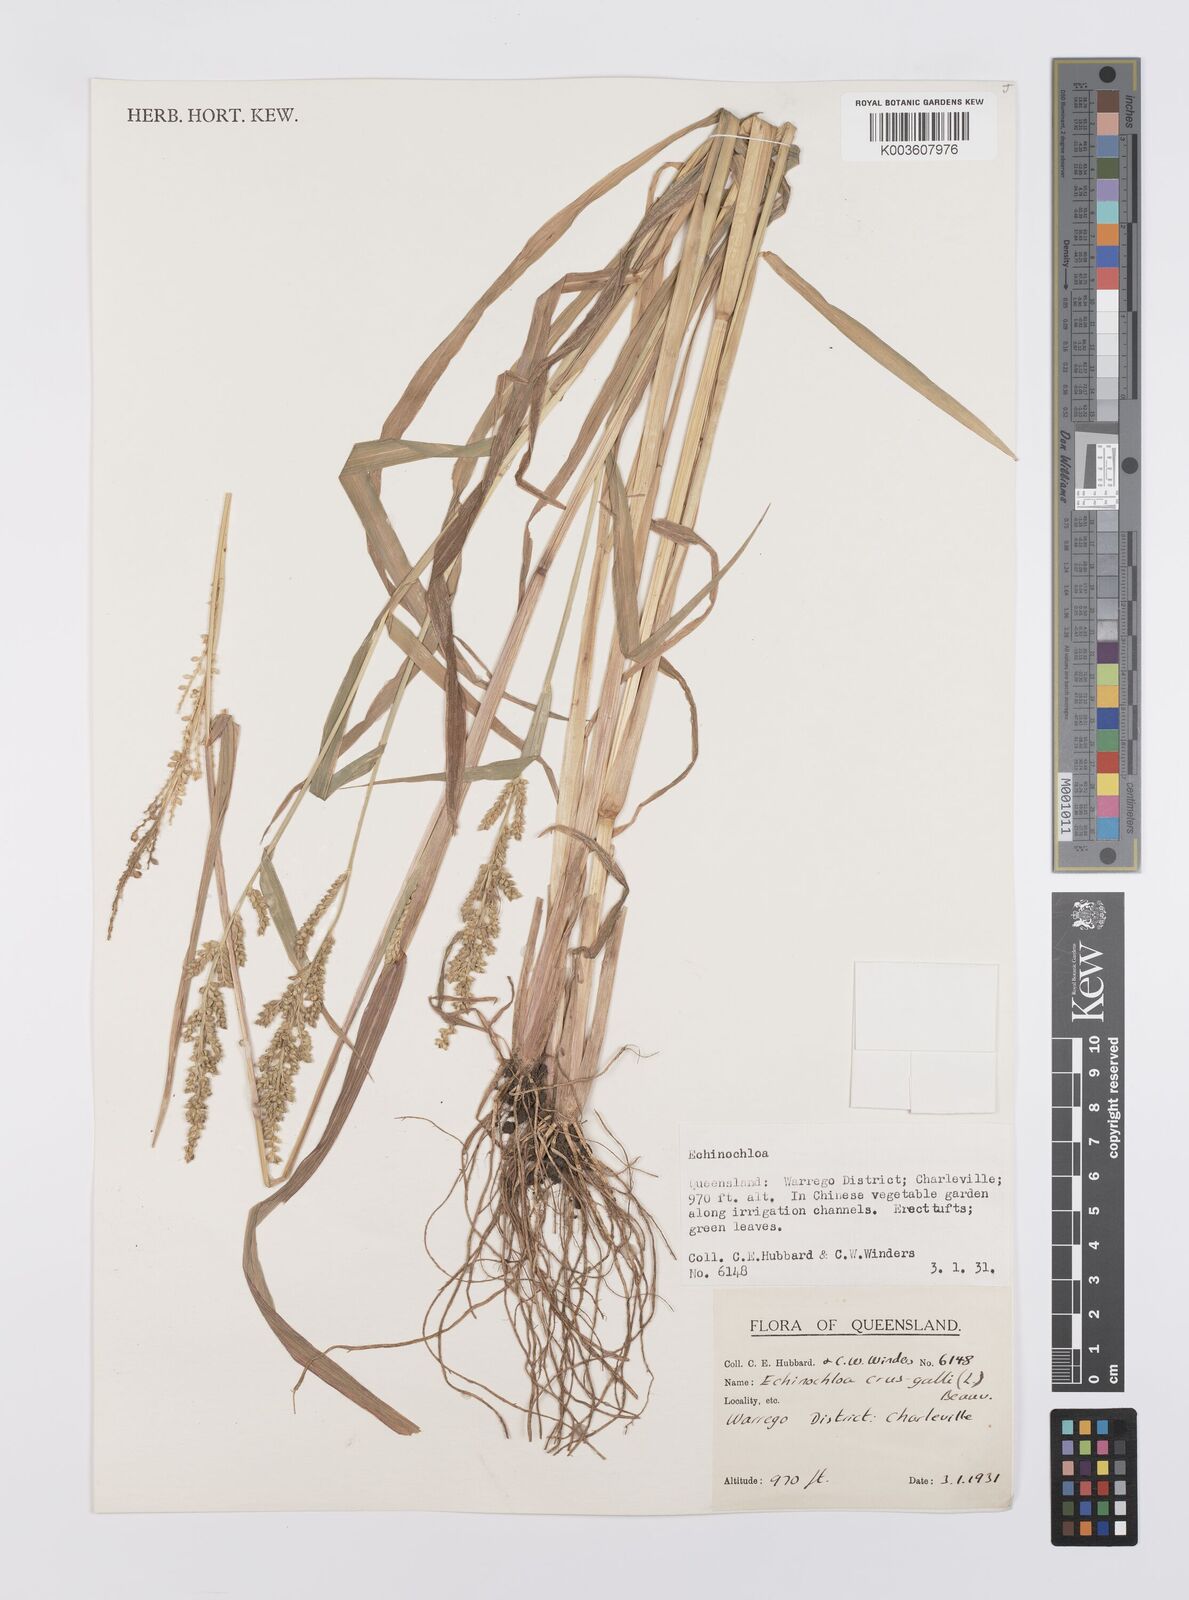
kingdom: Plantae
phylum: Tracheophyta
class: Liliopsida
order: Poales
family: Poaceae
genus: Echinochloa
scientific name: Echinochloa crus-galli
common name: Cockspur
